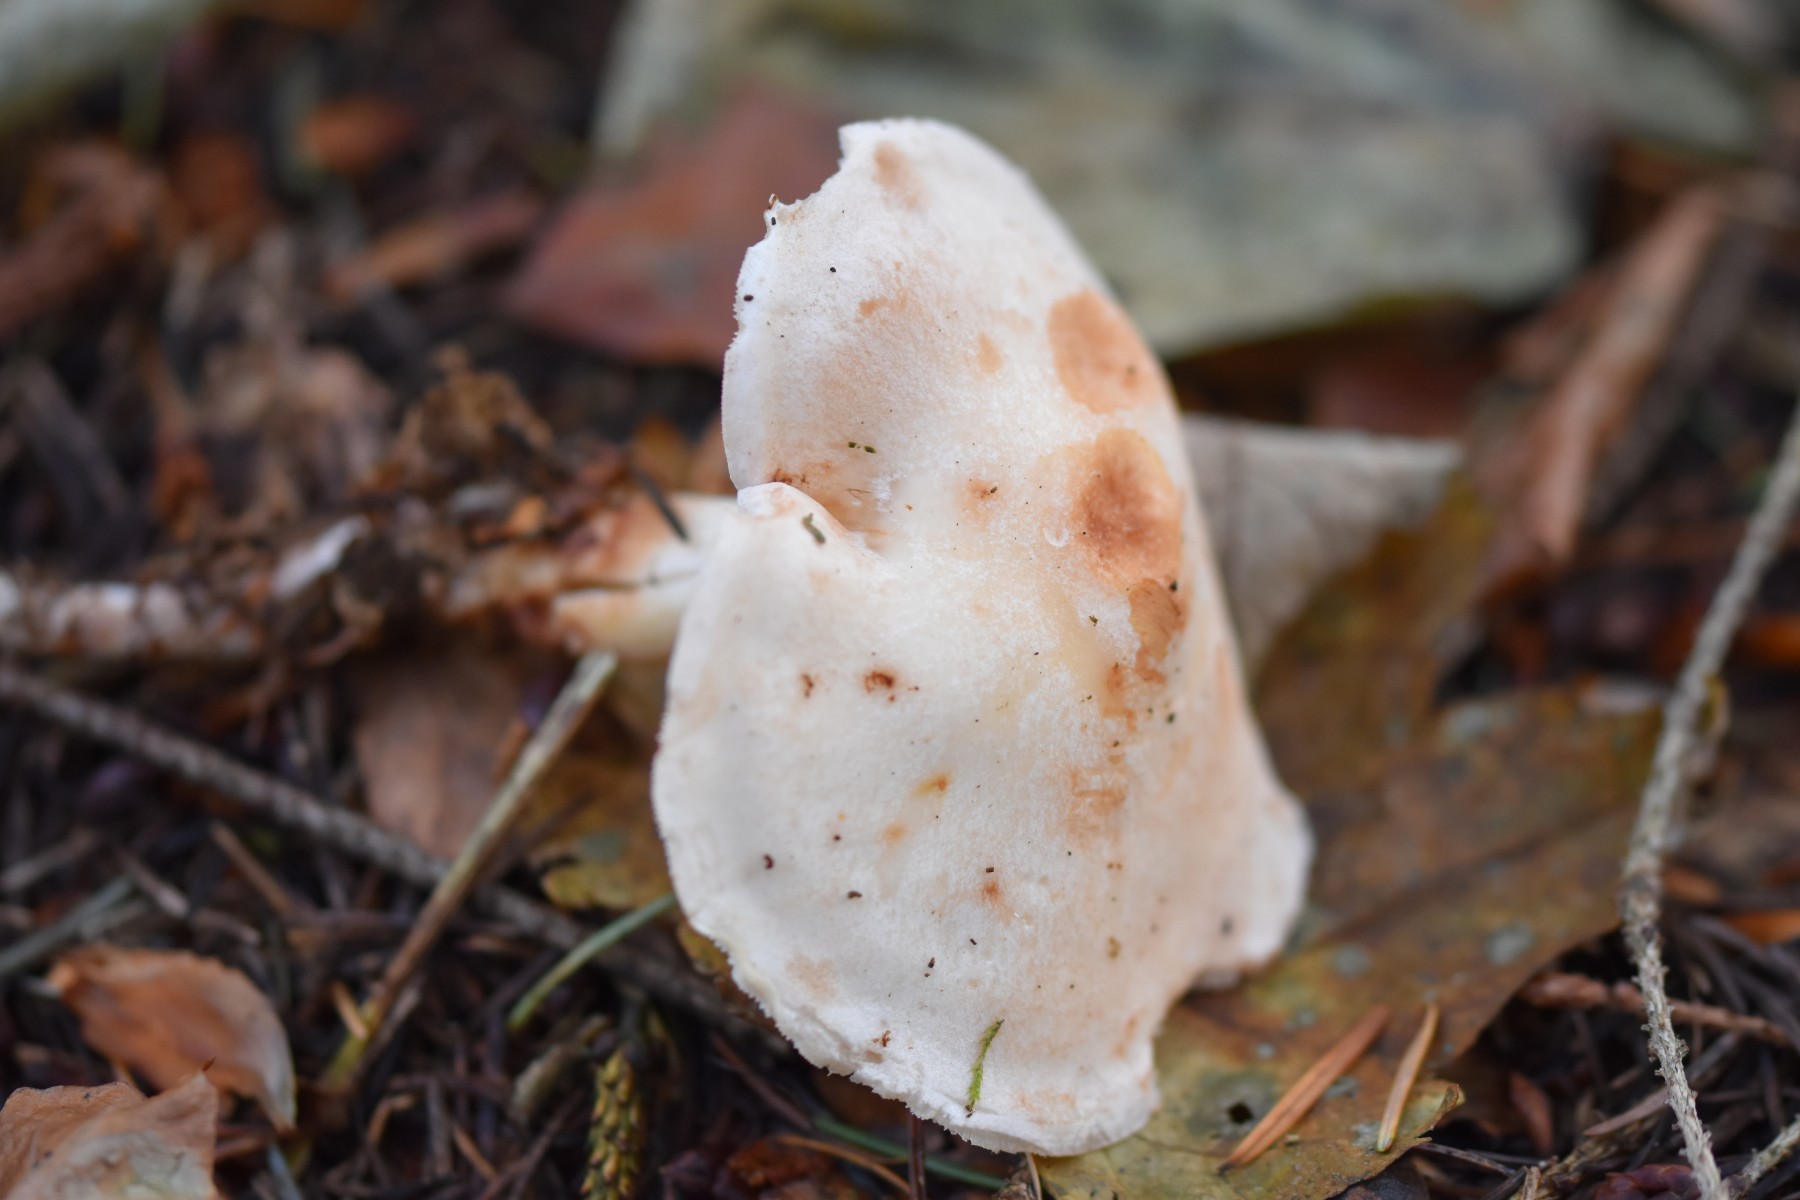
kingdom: Fungi
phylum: Basidiomycota
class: Agaricomycetes
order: Agaricales
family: Omphalotaceae
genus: Rhodocollybia
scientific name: Rhodocollybia maculata
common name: plettet fladhat
